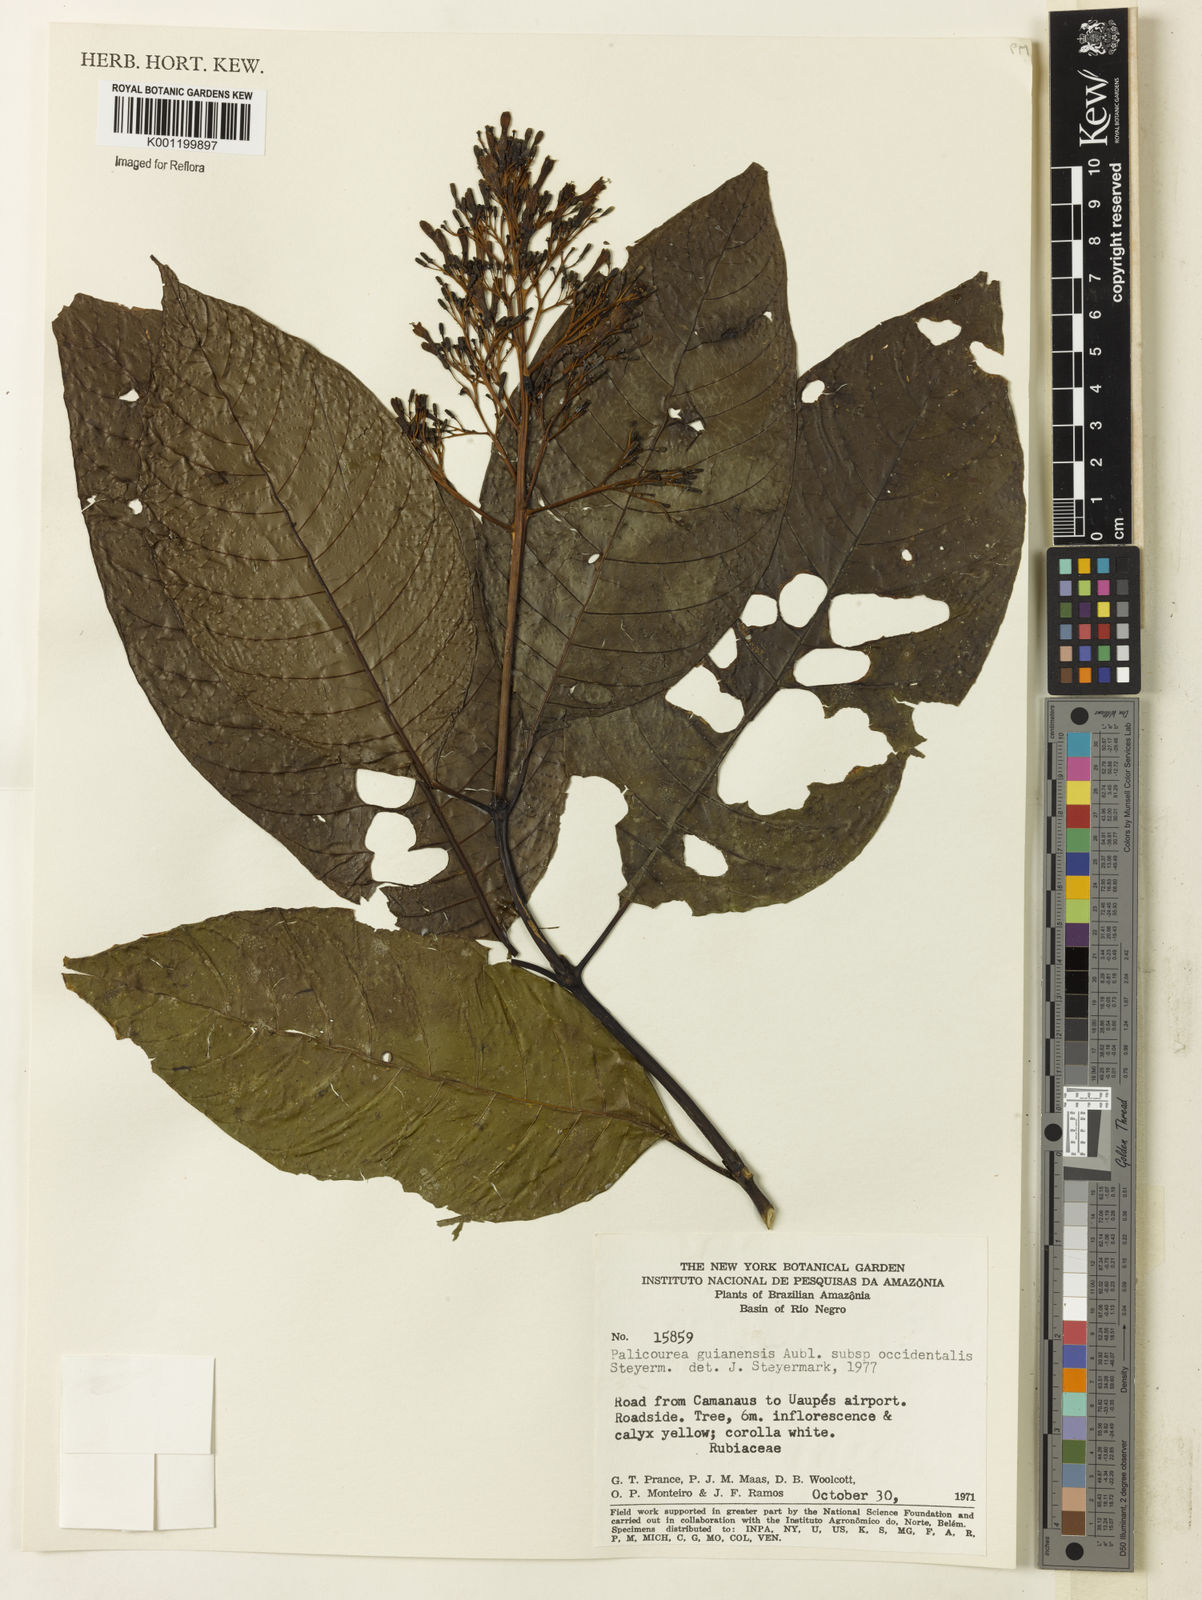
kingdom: Plantae
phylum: Tracheophyta
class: Magnoliopsida
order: Gentianales
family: Rubiaceae
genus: Palicourea
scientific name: Palicourea guianensis
